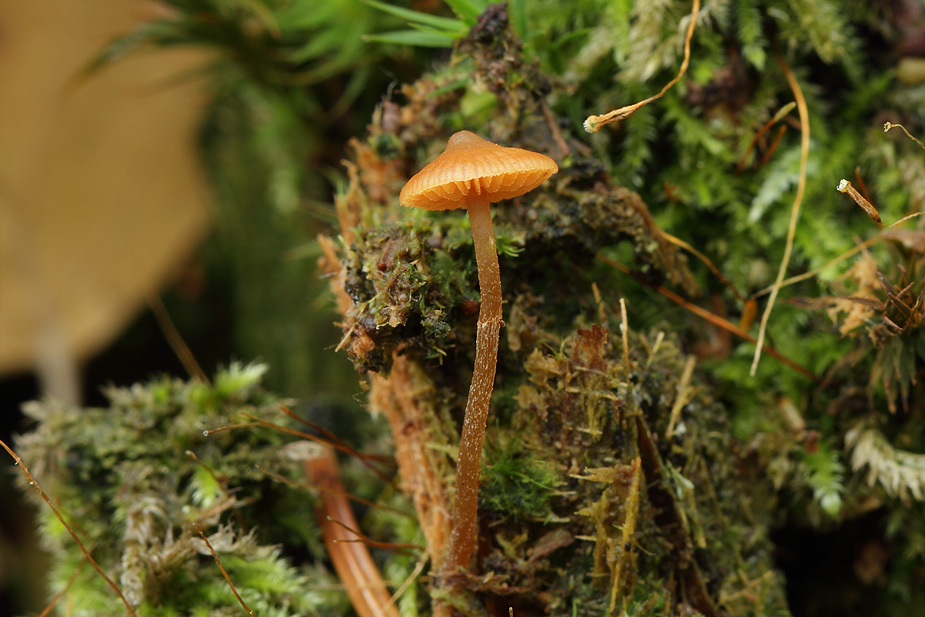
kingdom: Fungi
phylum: Basidiomycota
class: Agaricomycetes
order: Agaricales
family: Hymenogastraceae
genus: Galerina
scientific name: Galerina triscopa
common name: spidspuklet hjelmhat
